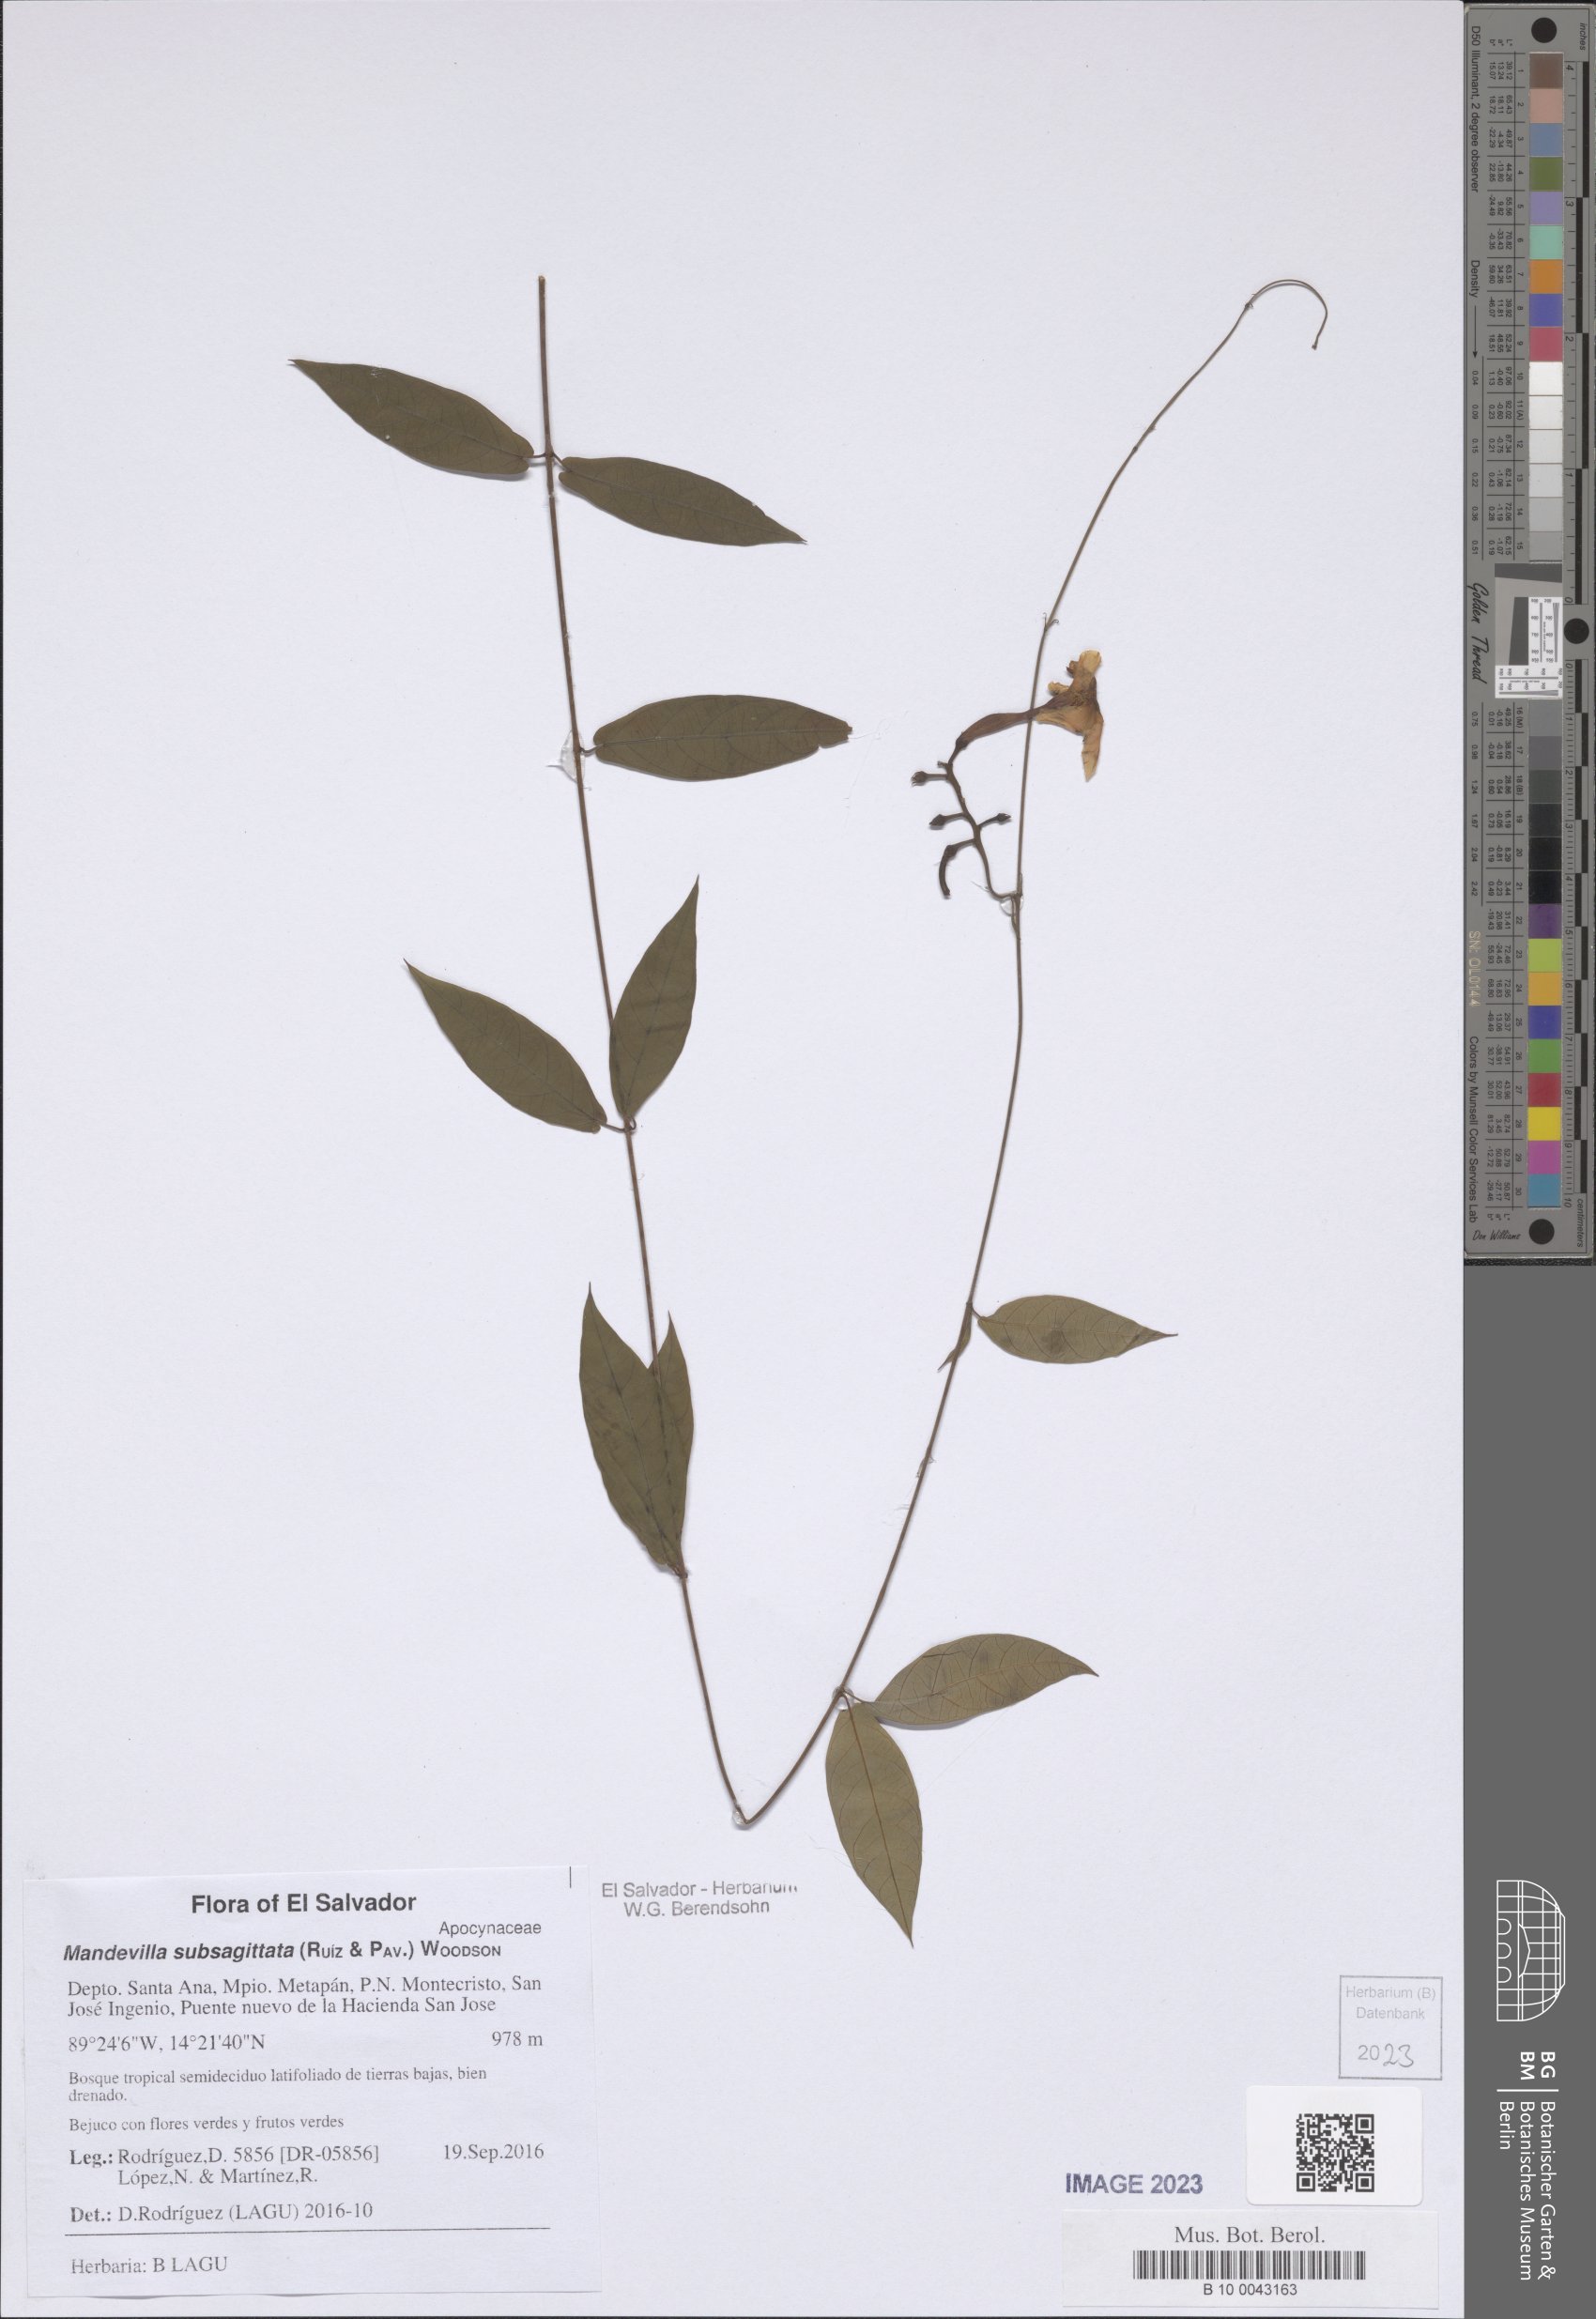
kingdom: Plantae
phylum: Tracheophyta
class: Magnoliopsida
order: Gentianales
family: Apocynaceae
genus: Mandevilla
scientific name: Mandevilla subsagittata
